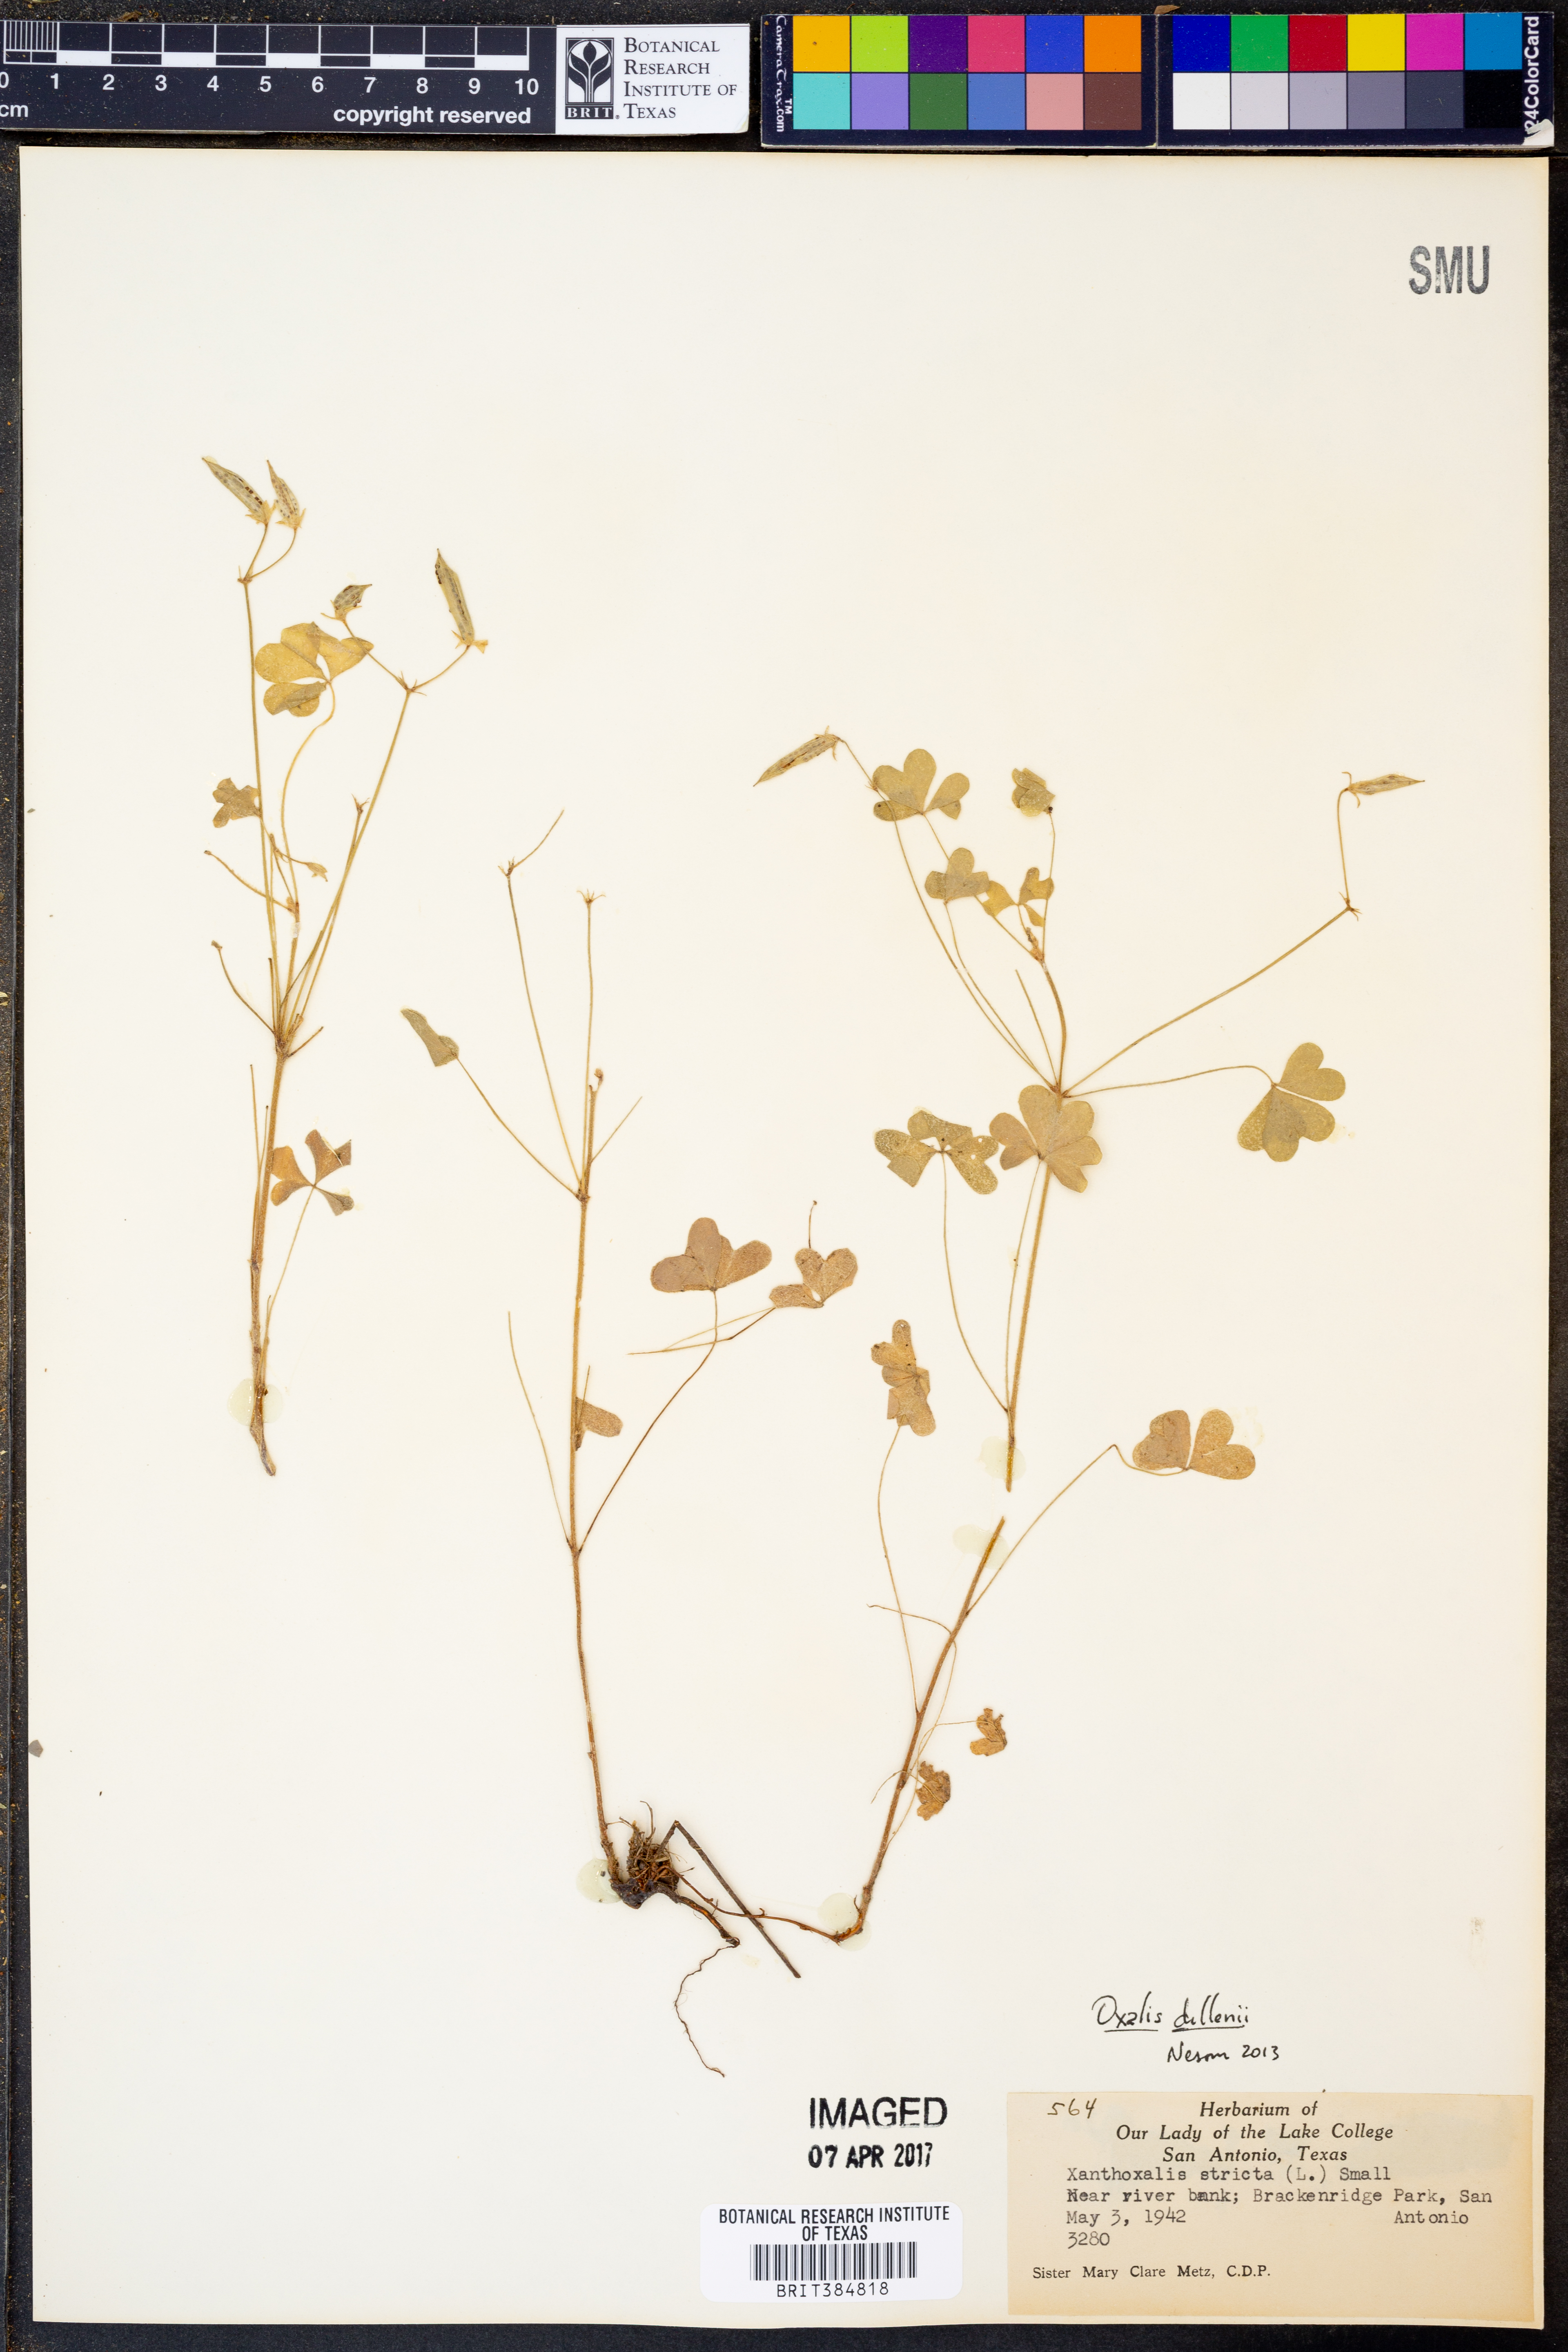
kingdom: Plantae
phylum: Tracheophyta
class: Magnoliopsida
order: Oxalidales
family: Oxalidaceae
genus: Oxalis
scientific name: Oxalis dillenii
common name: Sussex yellow-sorrel
